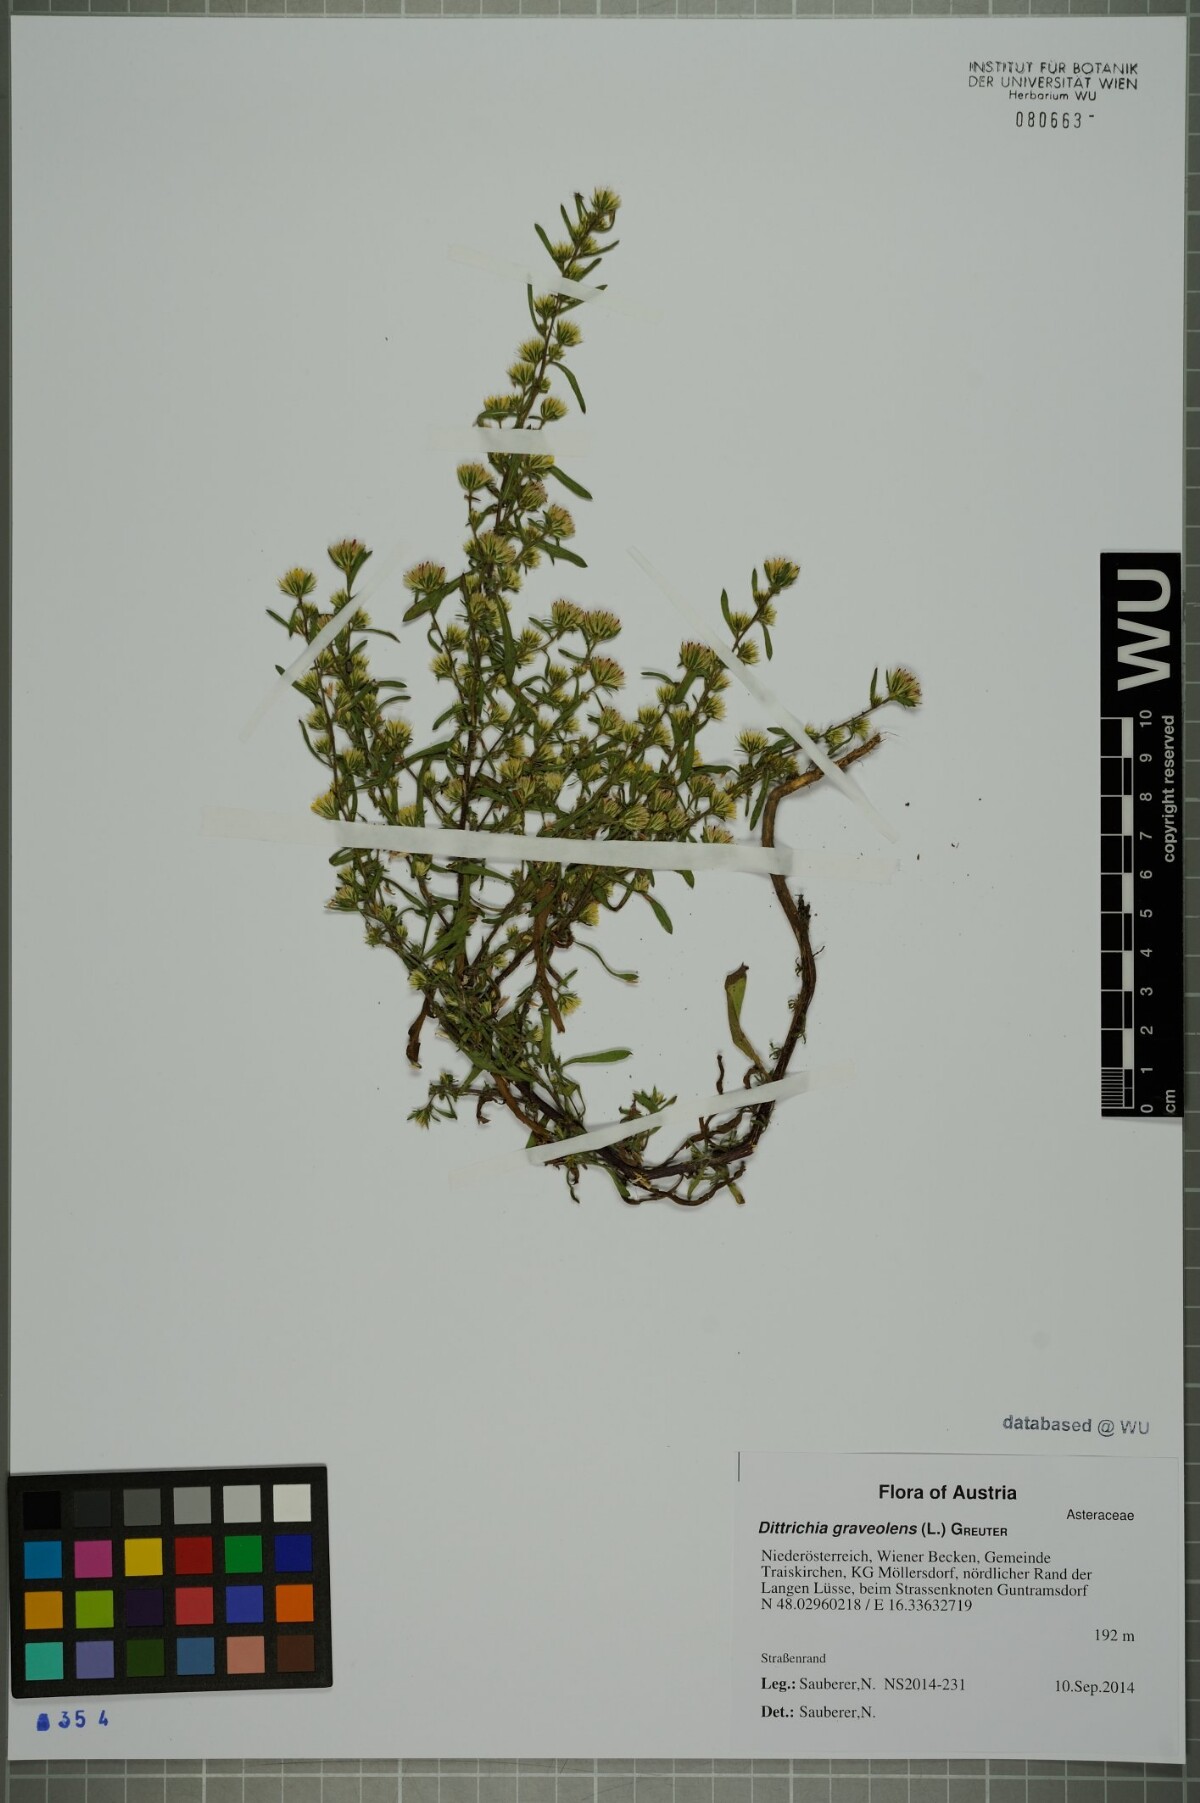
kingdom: Plantae
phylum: Tracheophyta
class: Magnoliopsida
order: Asterales
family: Asteraceae
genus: Dittrichia
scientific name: Dittrichia graveolens
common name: Stinking fleabane
